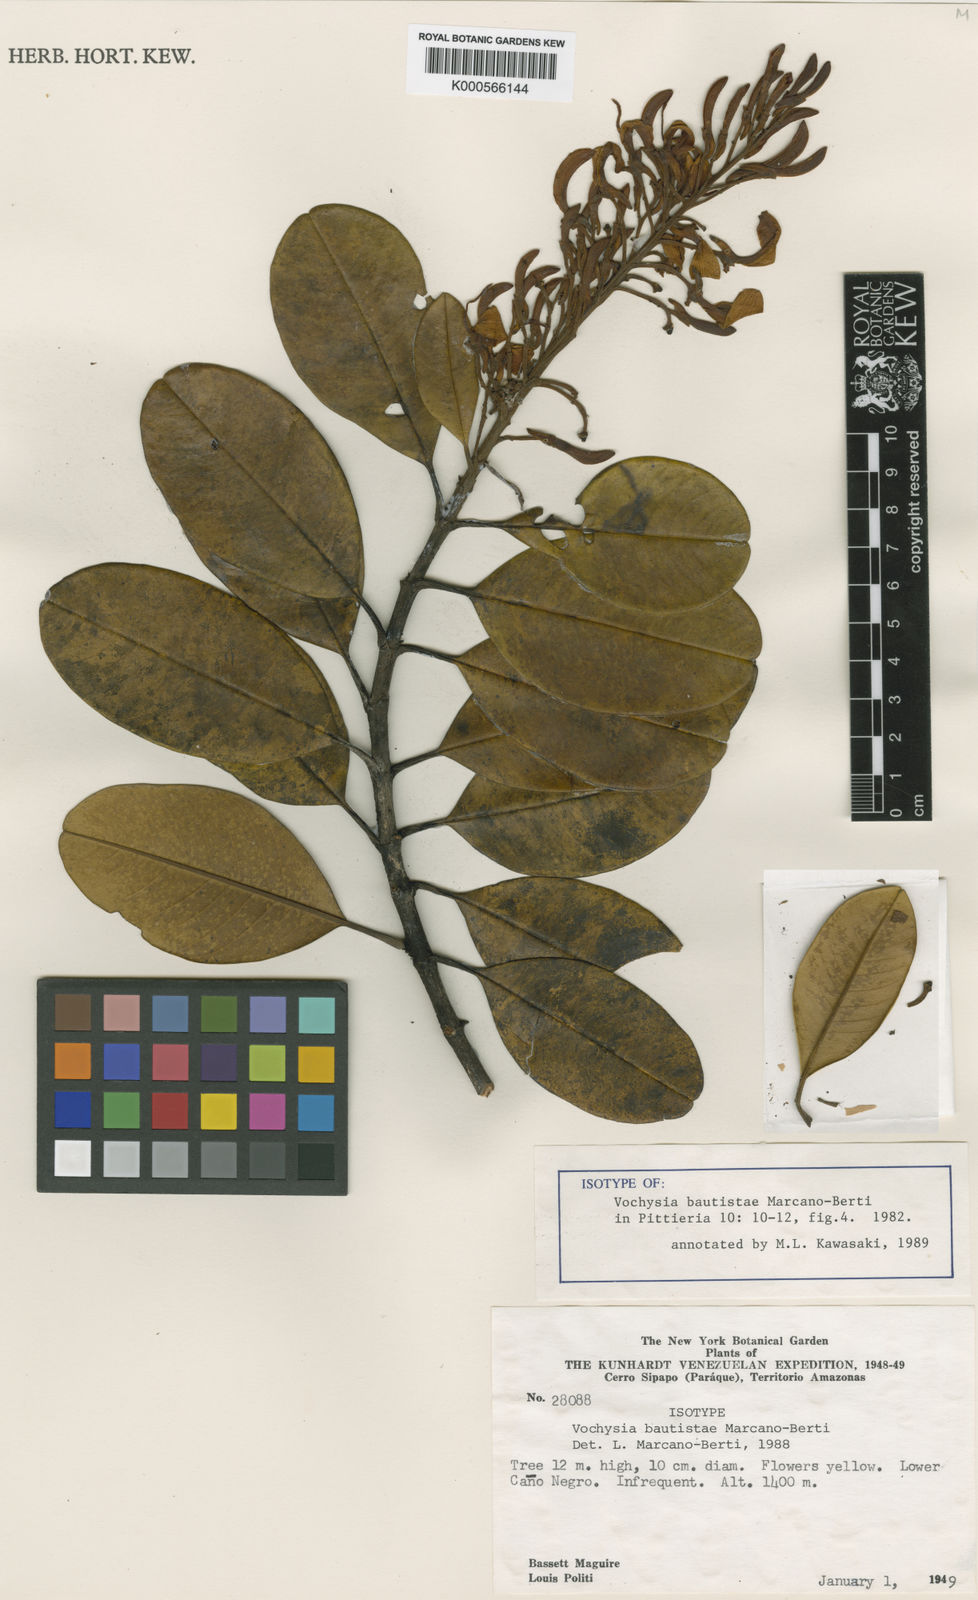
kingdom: Plantae
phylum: Tracheophyta
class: Magnoliopsida
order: Myrtales
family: Vochysiaceae
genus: Vochysia
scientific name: Vochysia bautistae
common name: Bautista vochysia
